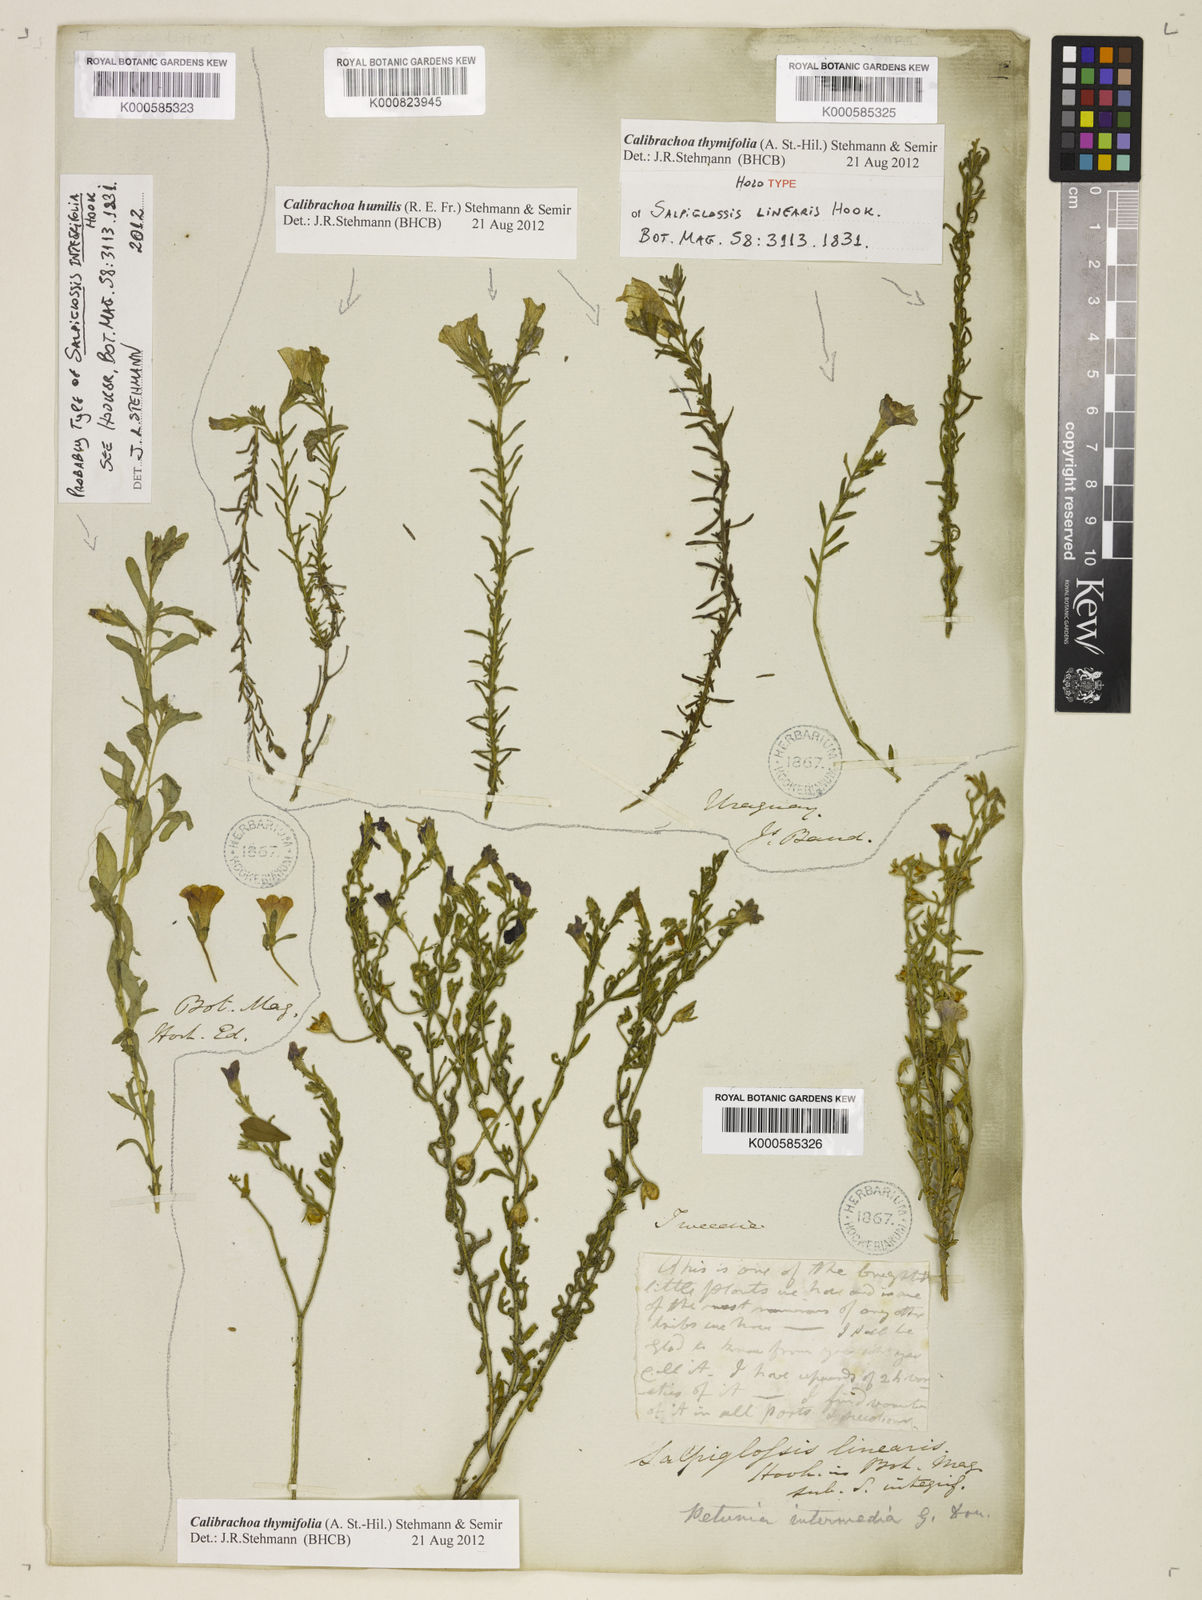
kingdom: Plantae
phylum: Tracheophyta
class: Magnoliopsida
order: Solanales
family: Solanaceae
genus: Calibrachoa
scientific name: Calibrachoa thymifolia
